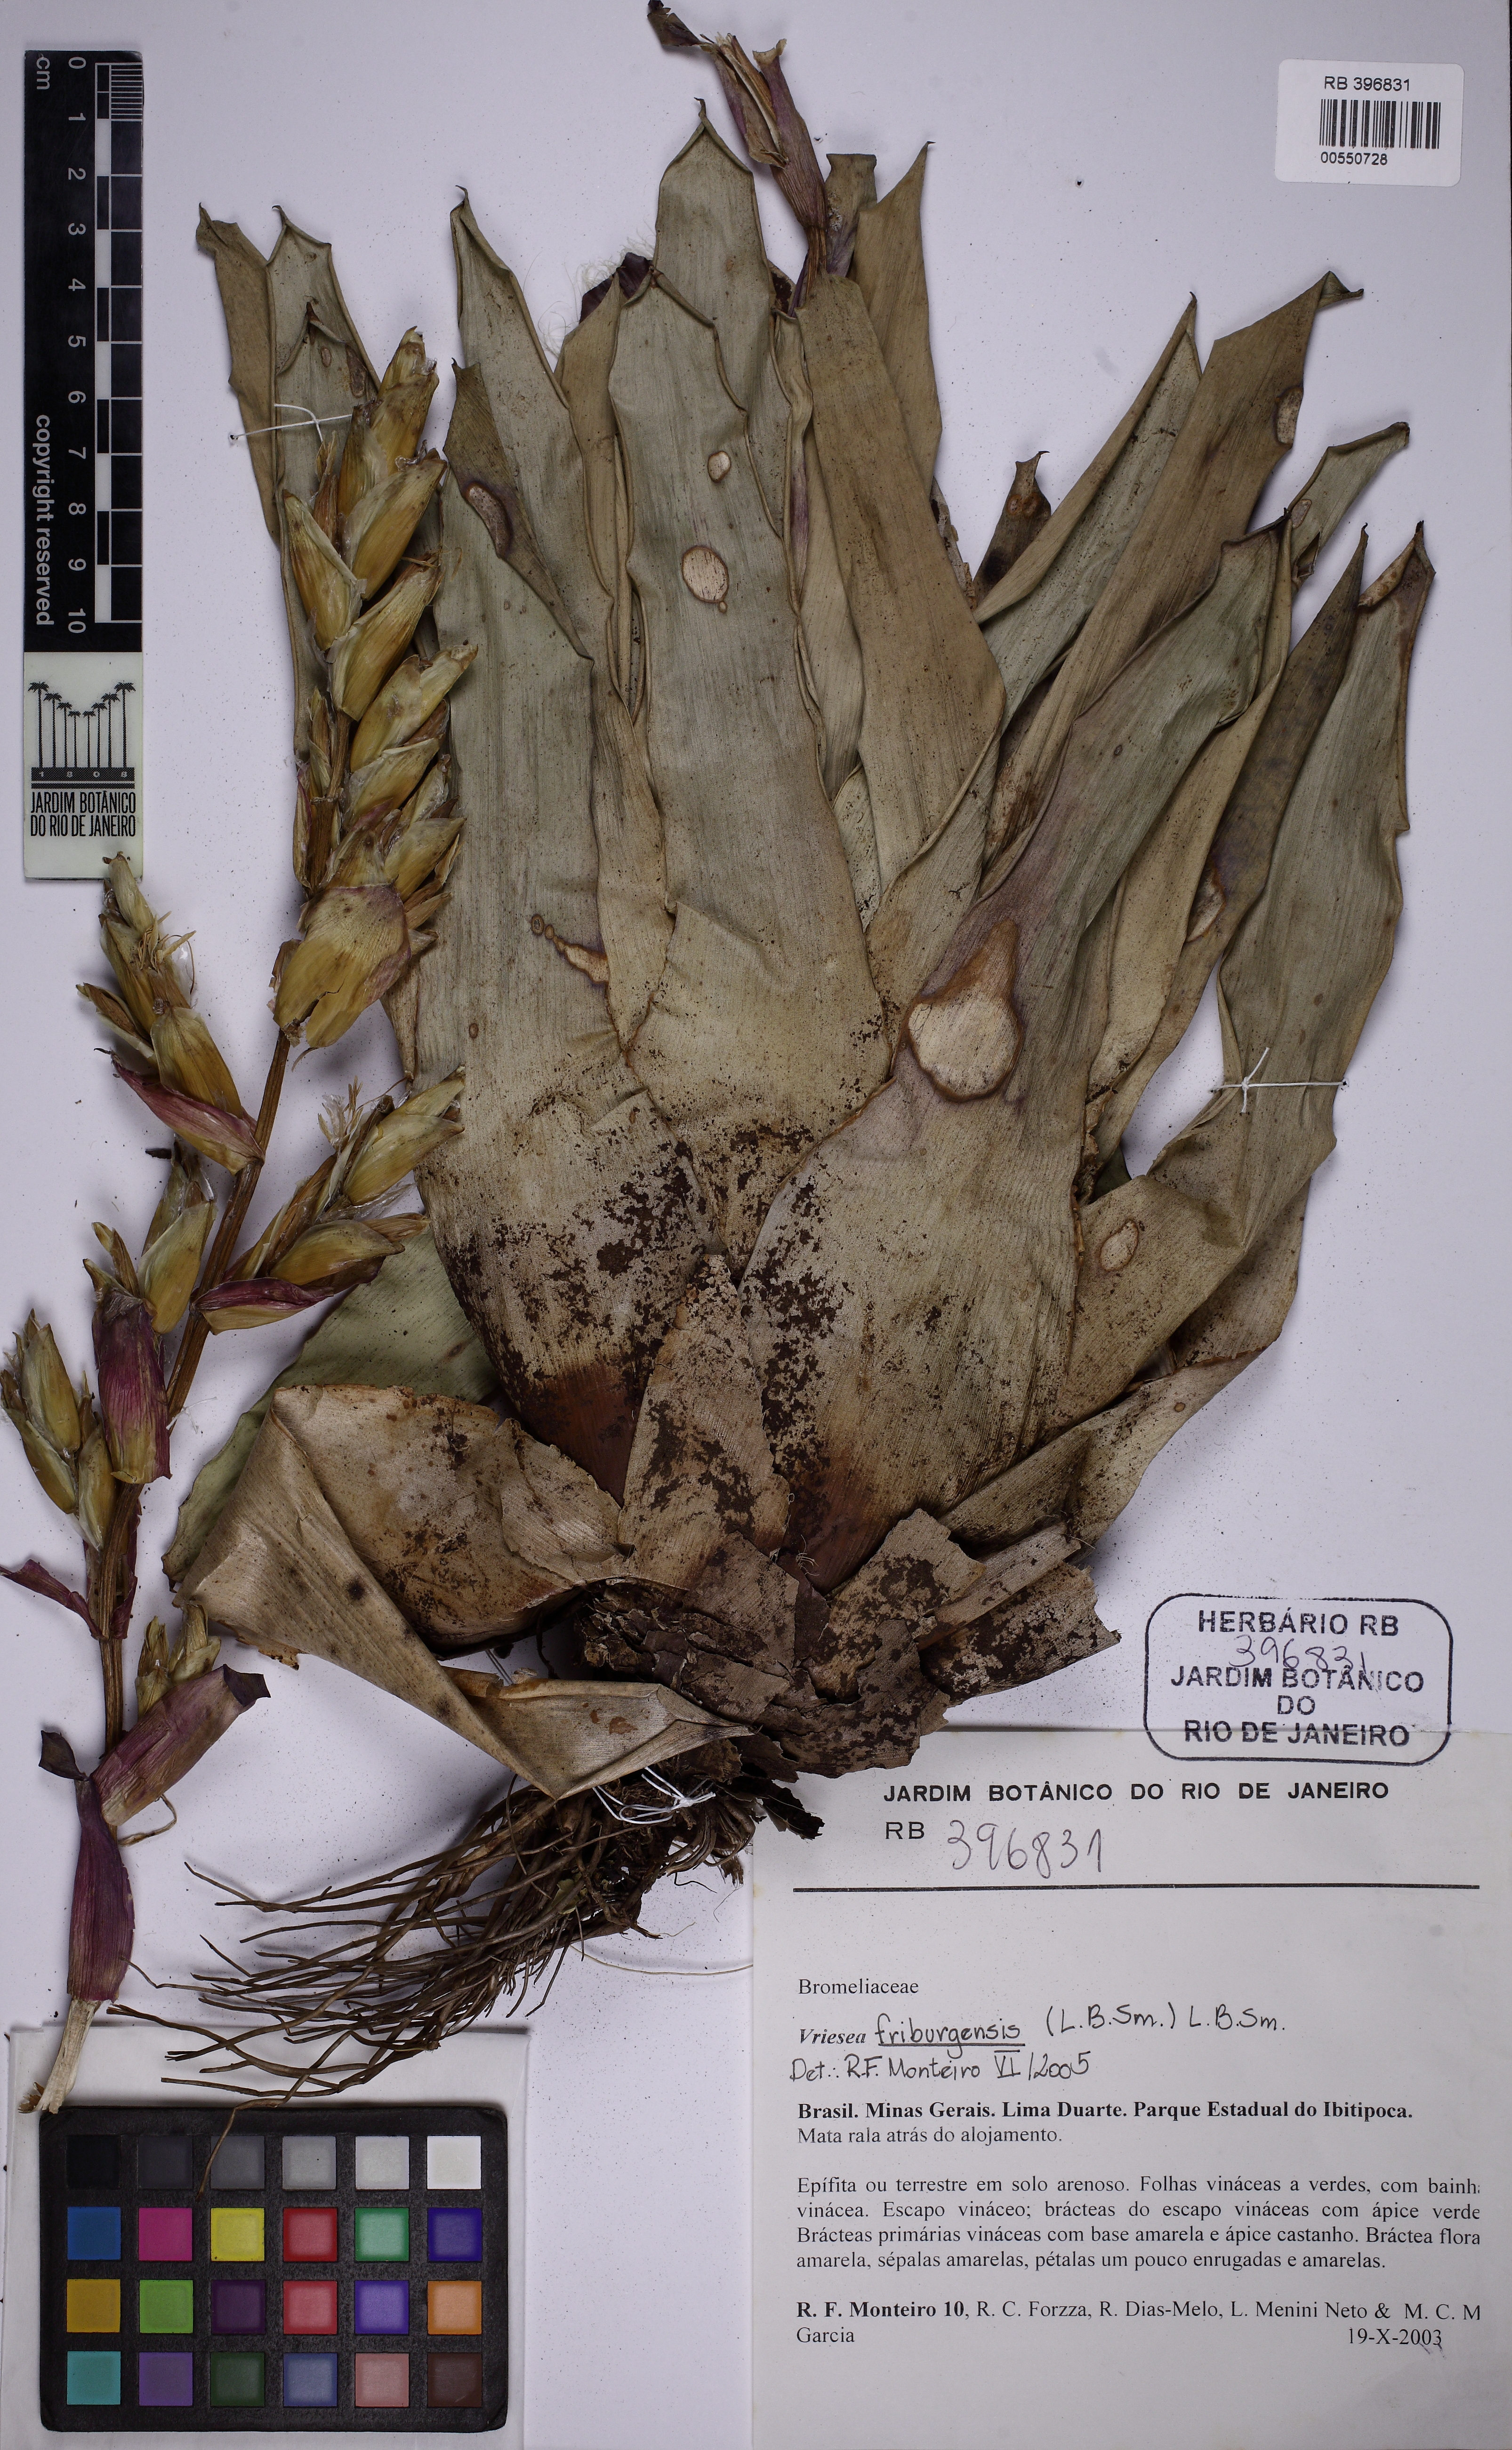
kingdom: Plantae
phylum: Tracheophyta
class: Liliopsida
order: Poales
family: Bromeliaceae
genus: Vriesea
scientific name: Vriesea friburgensis
